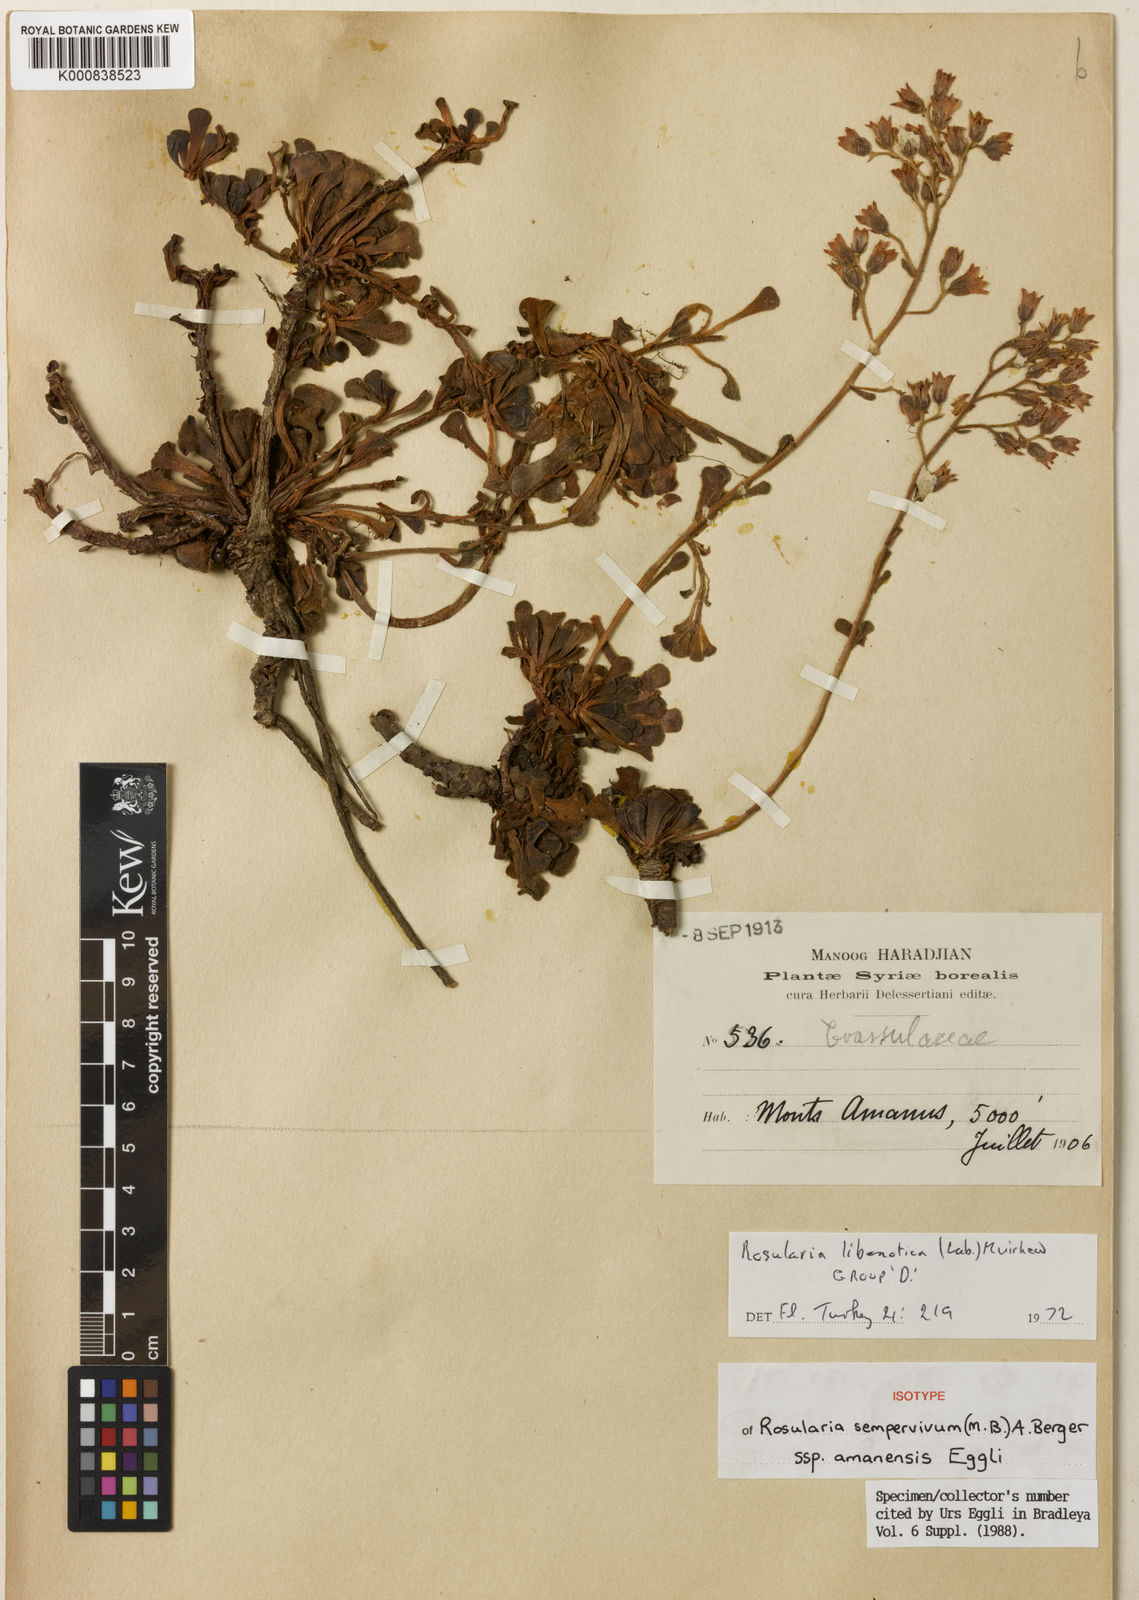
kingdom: Plantae
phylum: Tracheophyta
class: Magnoliopsida
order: Saxifragales
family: Crassulaceae
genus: Rosularia
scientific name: Rosularia sempervivum
